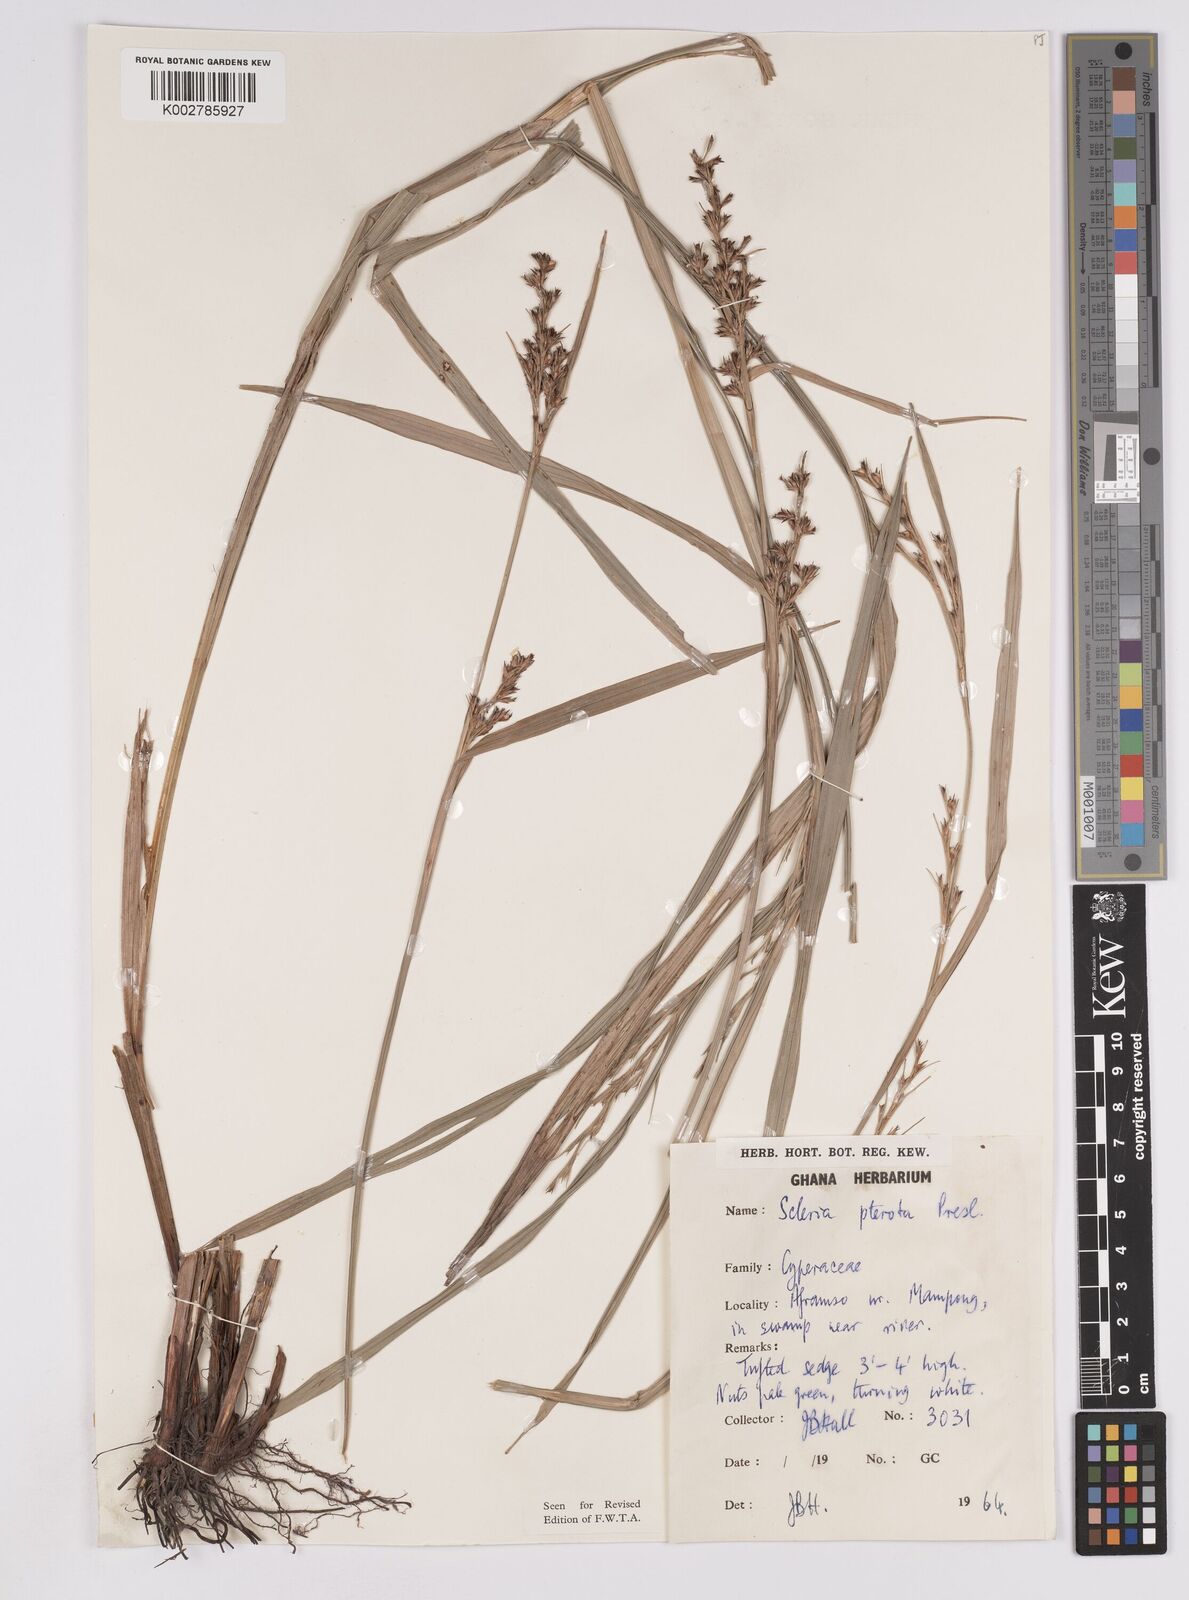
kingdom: Plantae
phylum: Tracheophyta
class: Liliopsida
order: Poales
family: Cyperaceae
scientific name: Cyperaceae
